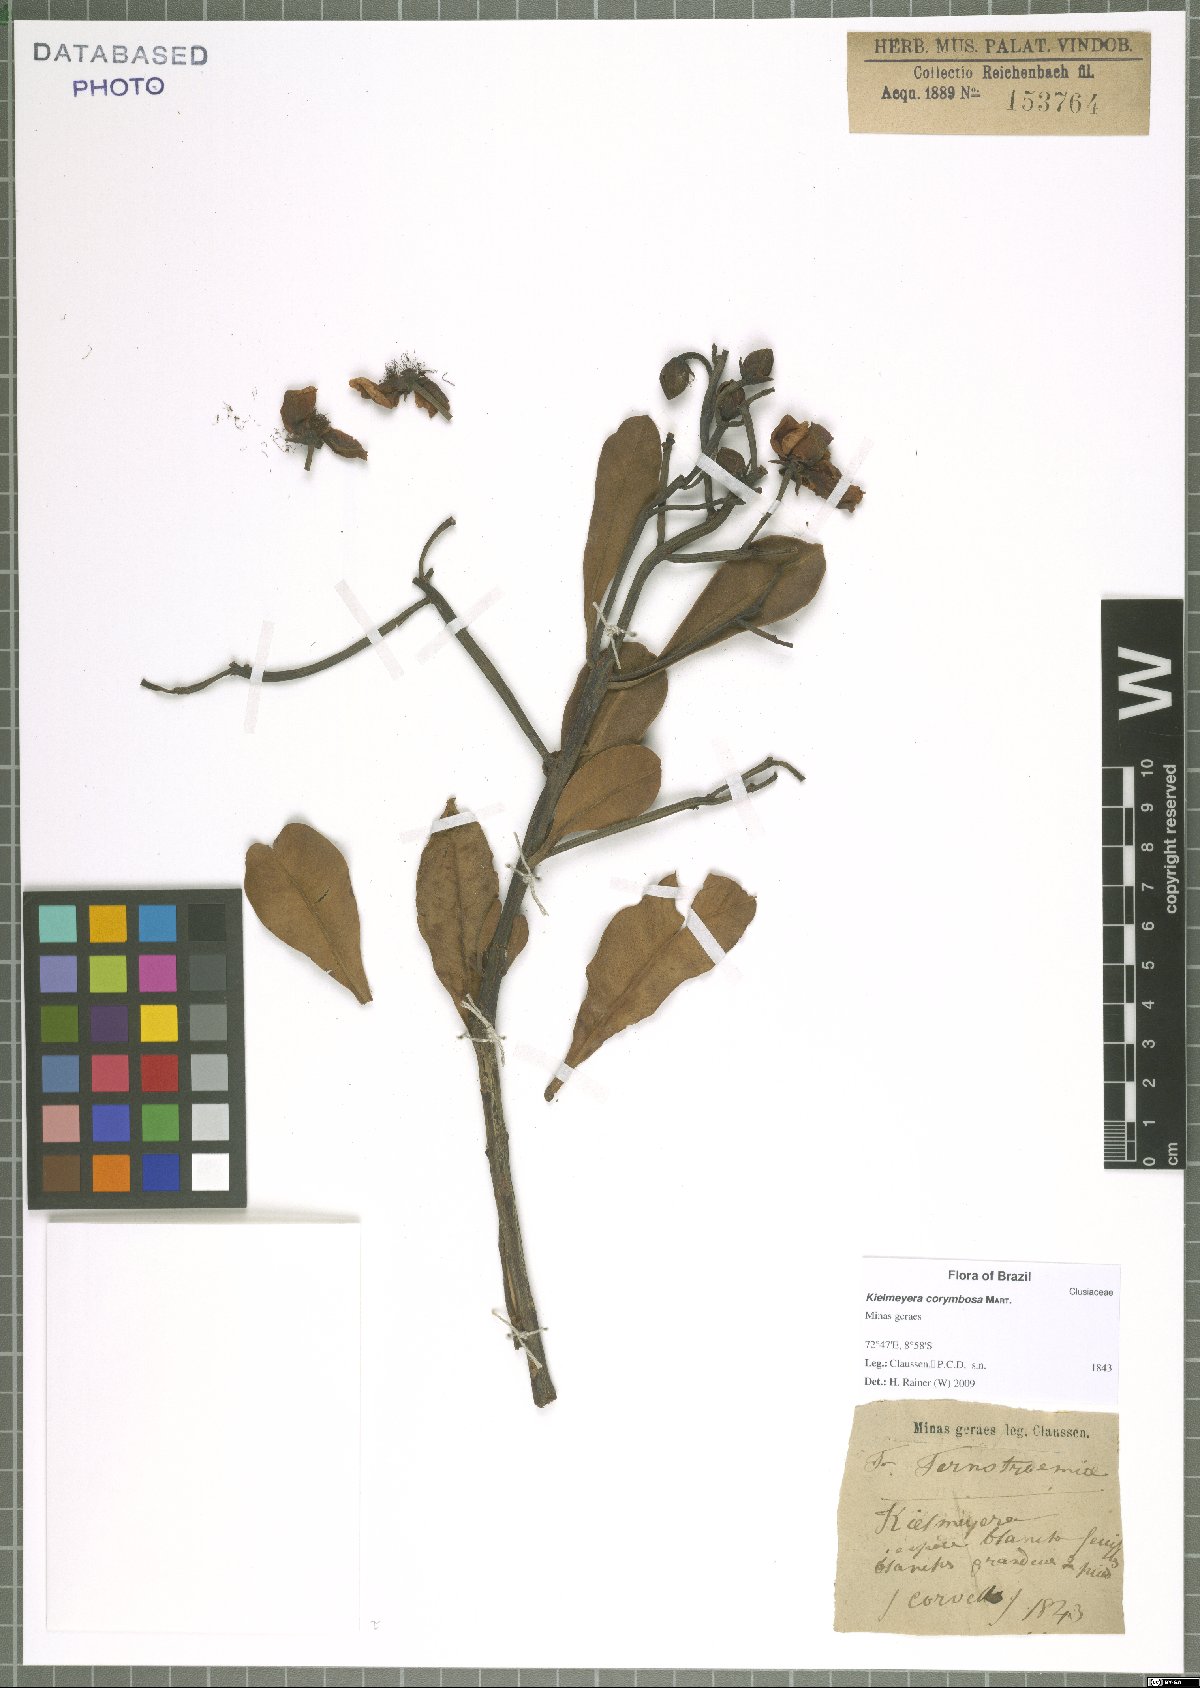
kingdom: Plantae
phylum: Tracheophyta
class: Magnoliopsida
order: Malpighiales
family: Calophyllaceae
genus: Kielmeyera
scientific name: Kielmeyera corymbosa
